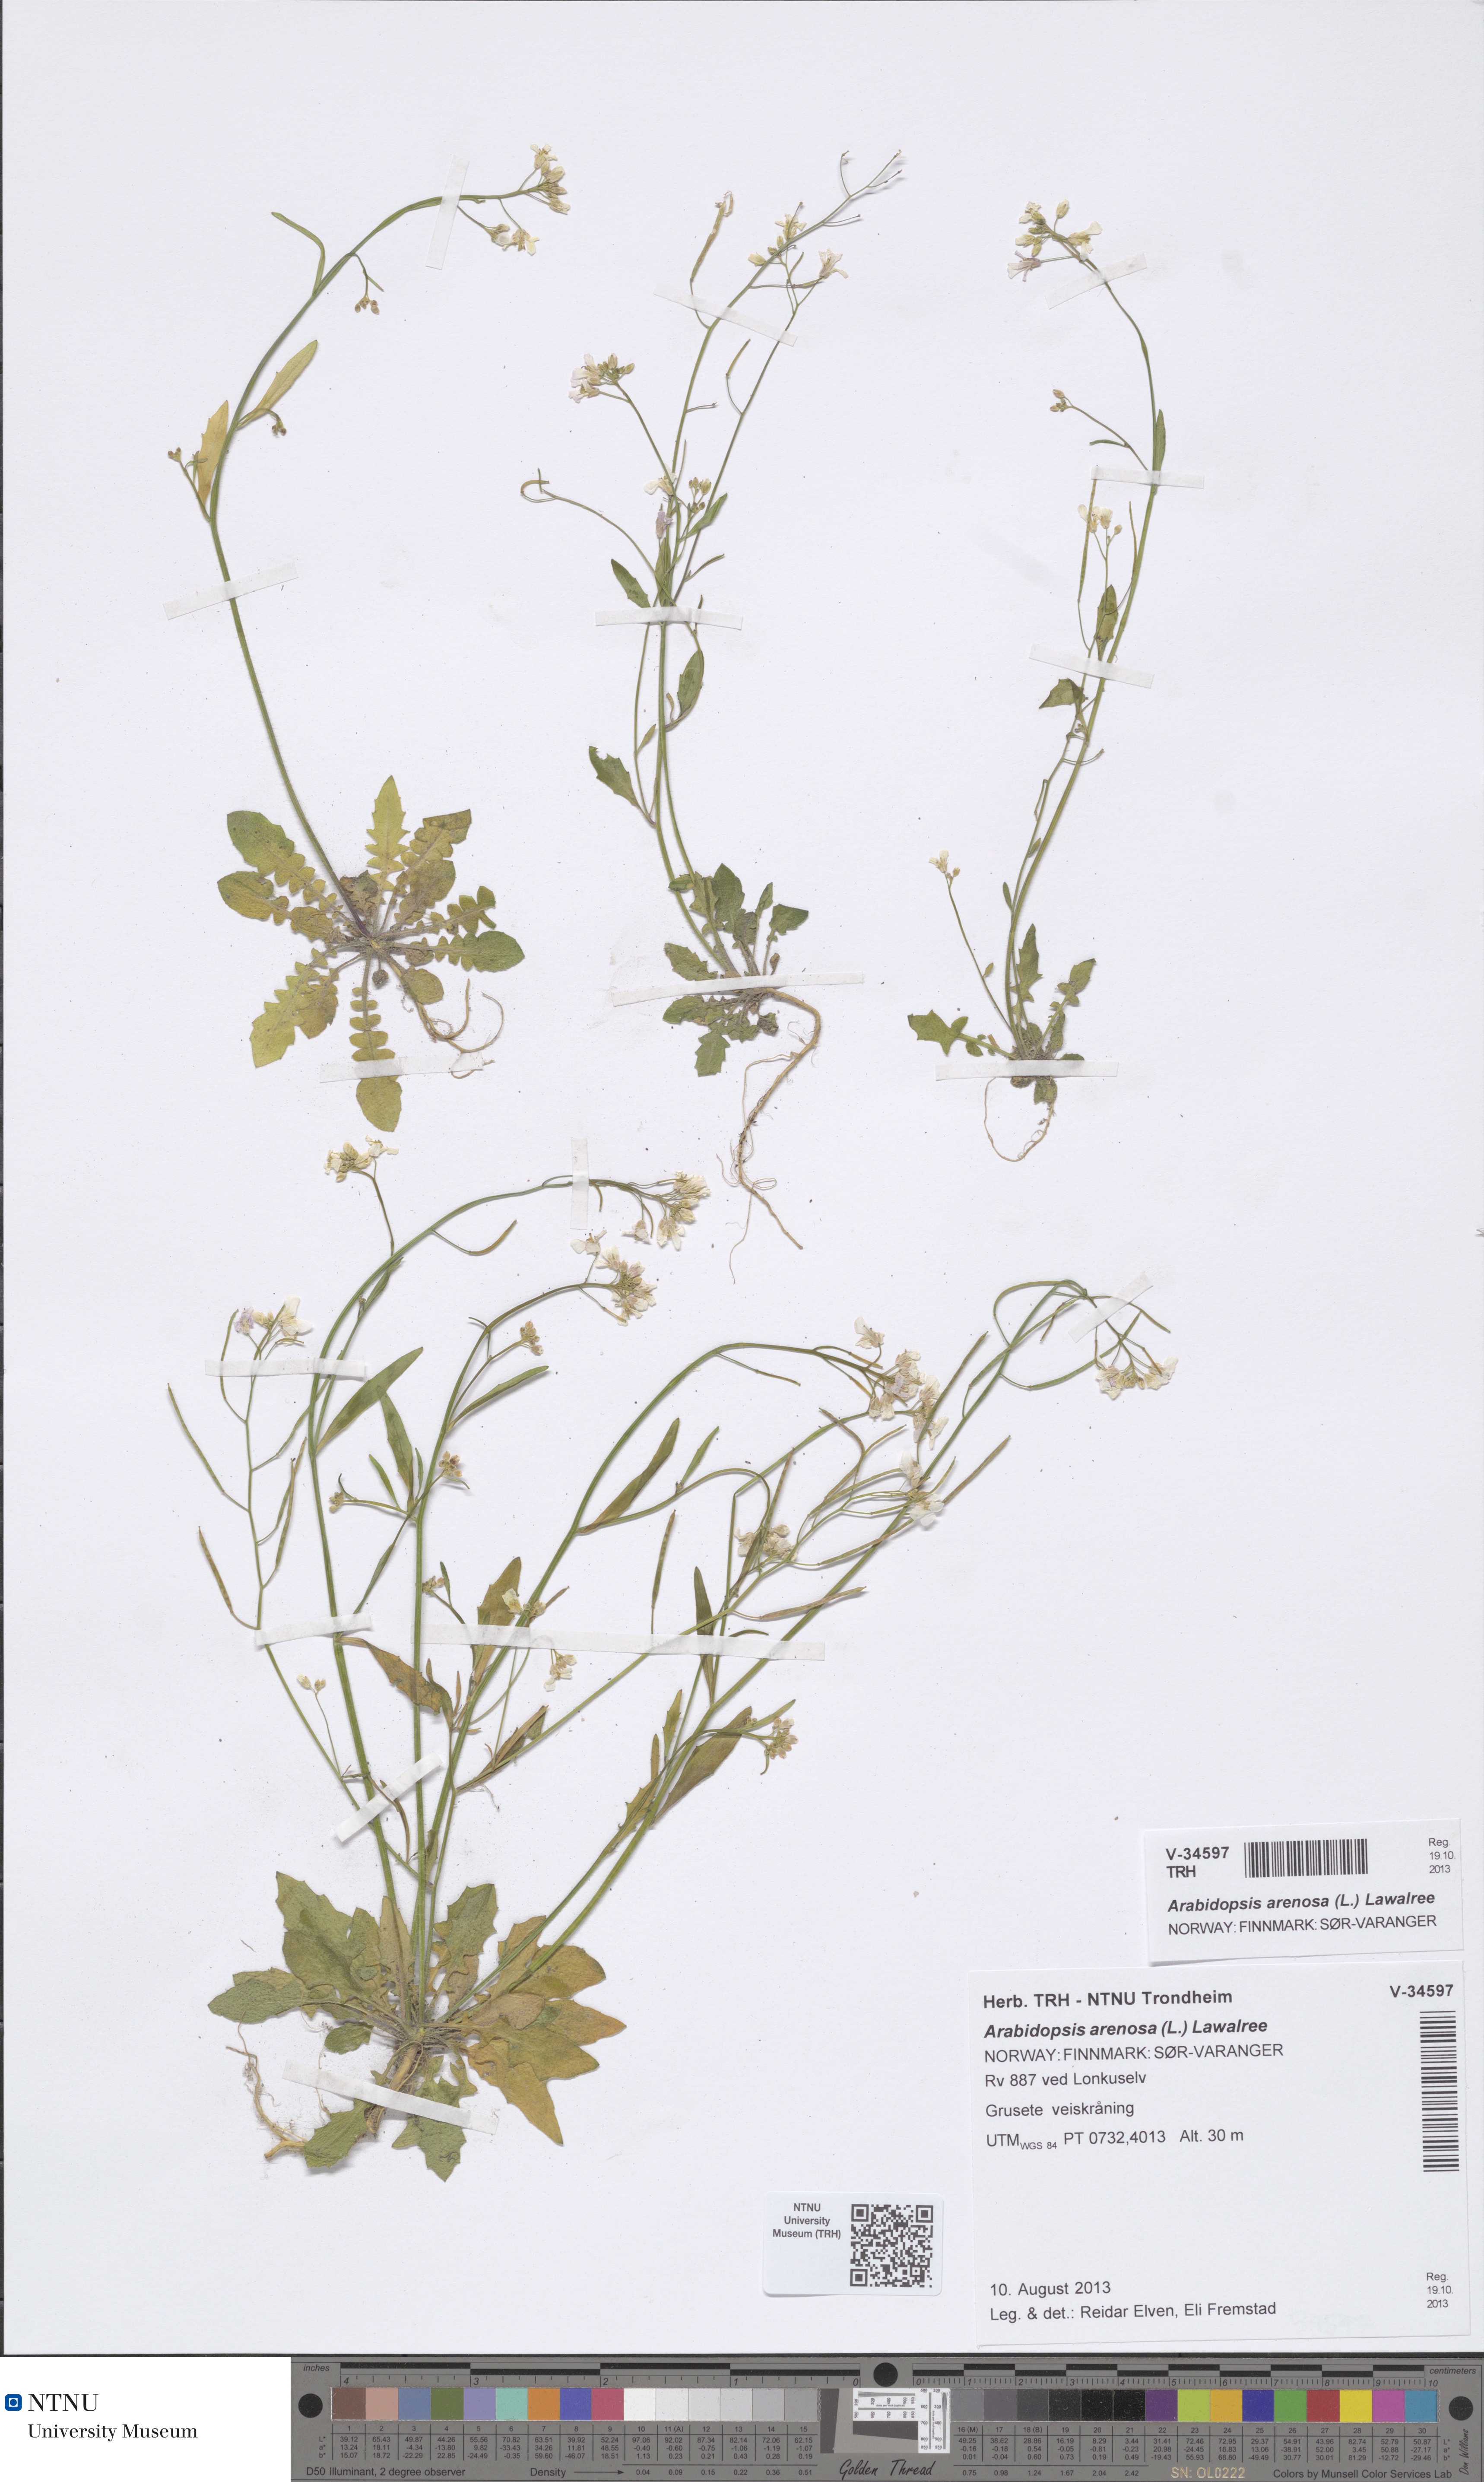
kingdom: Plantae
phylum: Tracheophyta
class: Magnoliopsida
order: Brassicales
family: Brassicaceae
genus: Arabidopsis
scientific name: Arabidopsis arenosa
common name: Sand rock-cress
